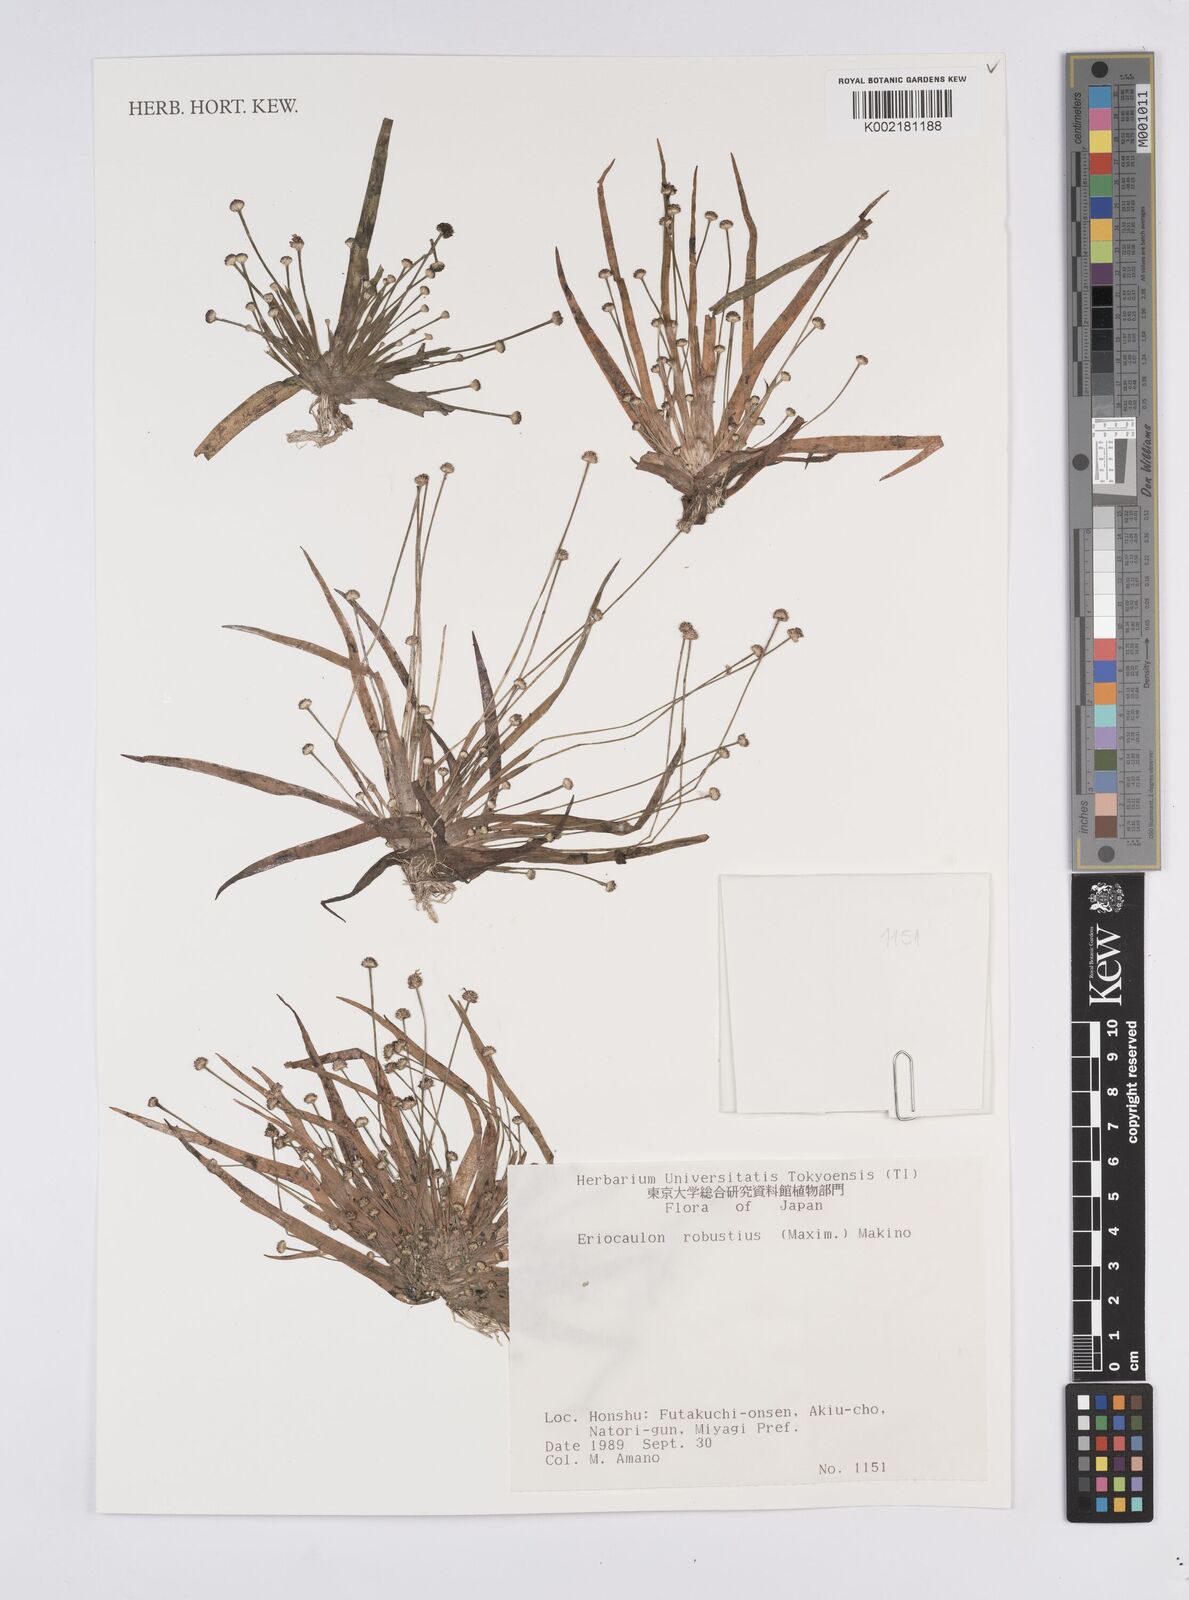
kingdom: Plantae
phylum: Tracheophyta
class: Liliopsida
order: Poales
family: Eriocaulaceae
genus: Eriocaulon
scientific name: Eriocaulon alpestre
